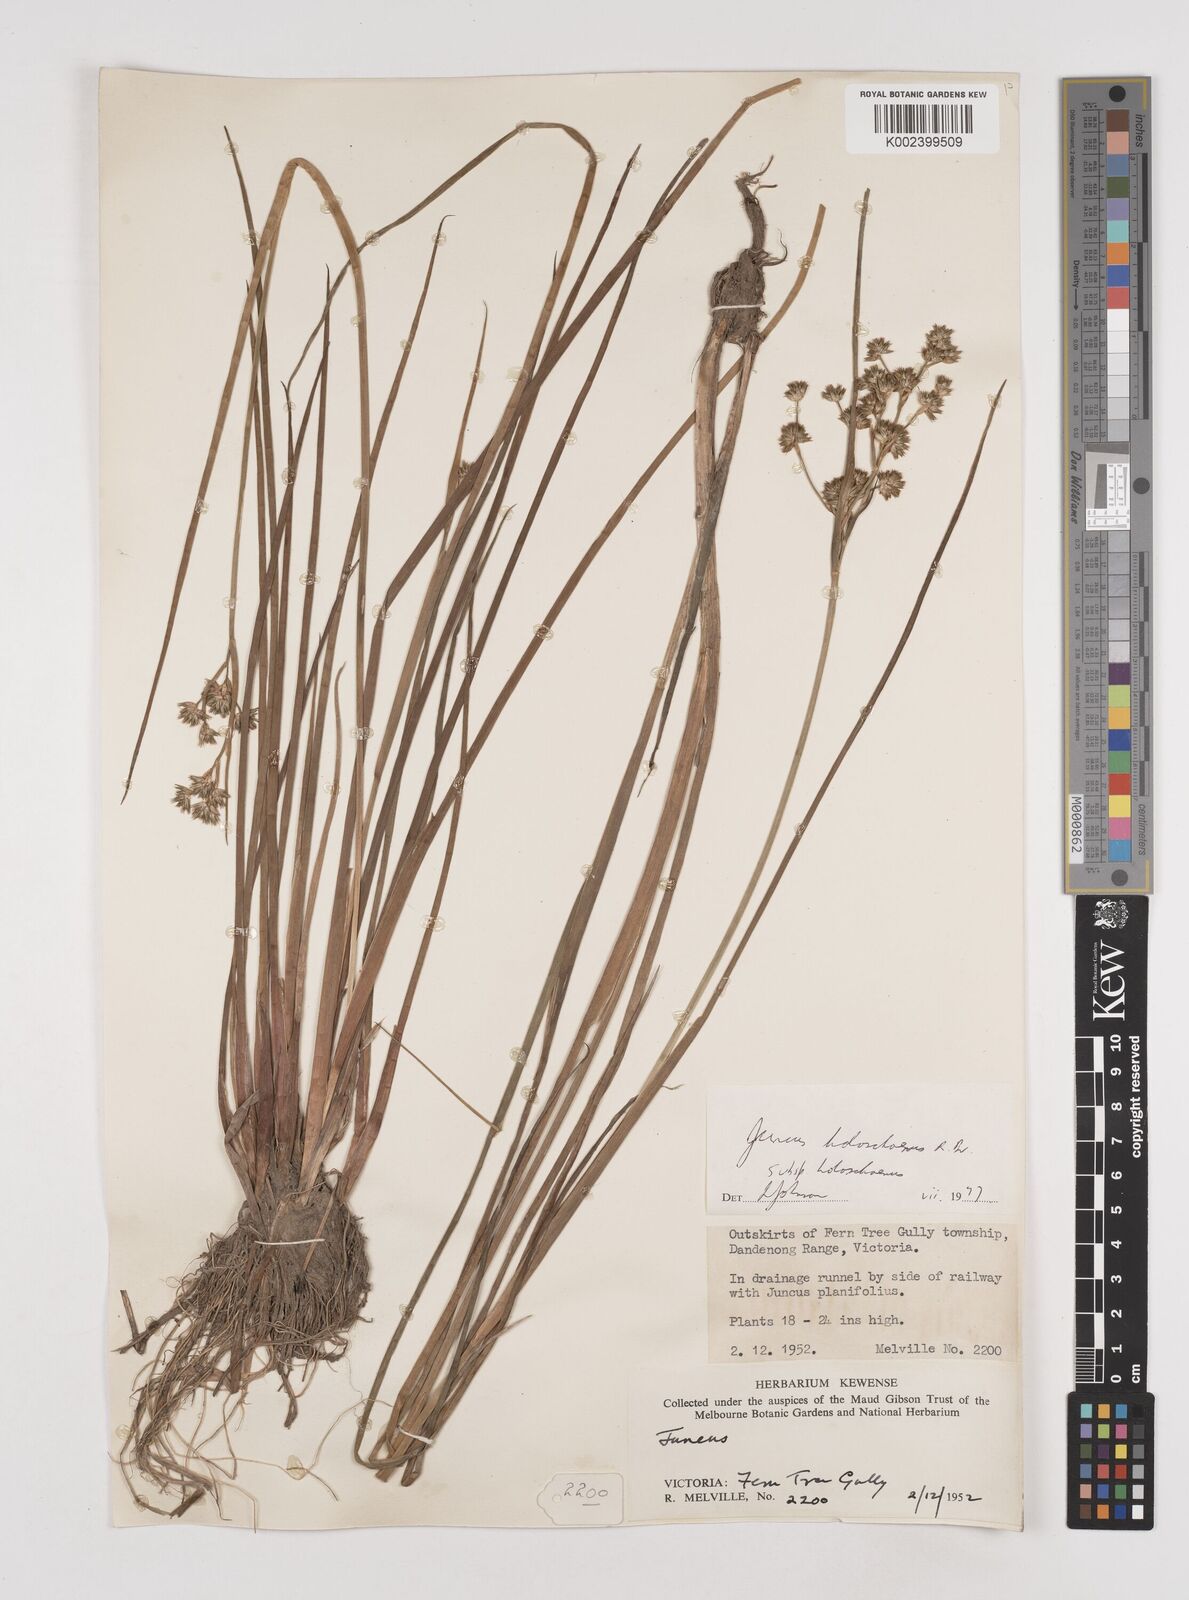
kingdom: Plantae
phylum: Tracheophyta
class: Liliopsida
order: Poales
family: Juncaceae
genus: Juncus
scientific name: Juncus holoschoenus
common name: Joint-leaf rush
